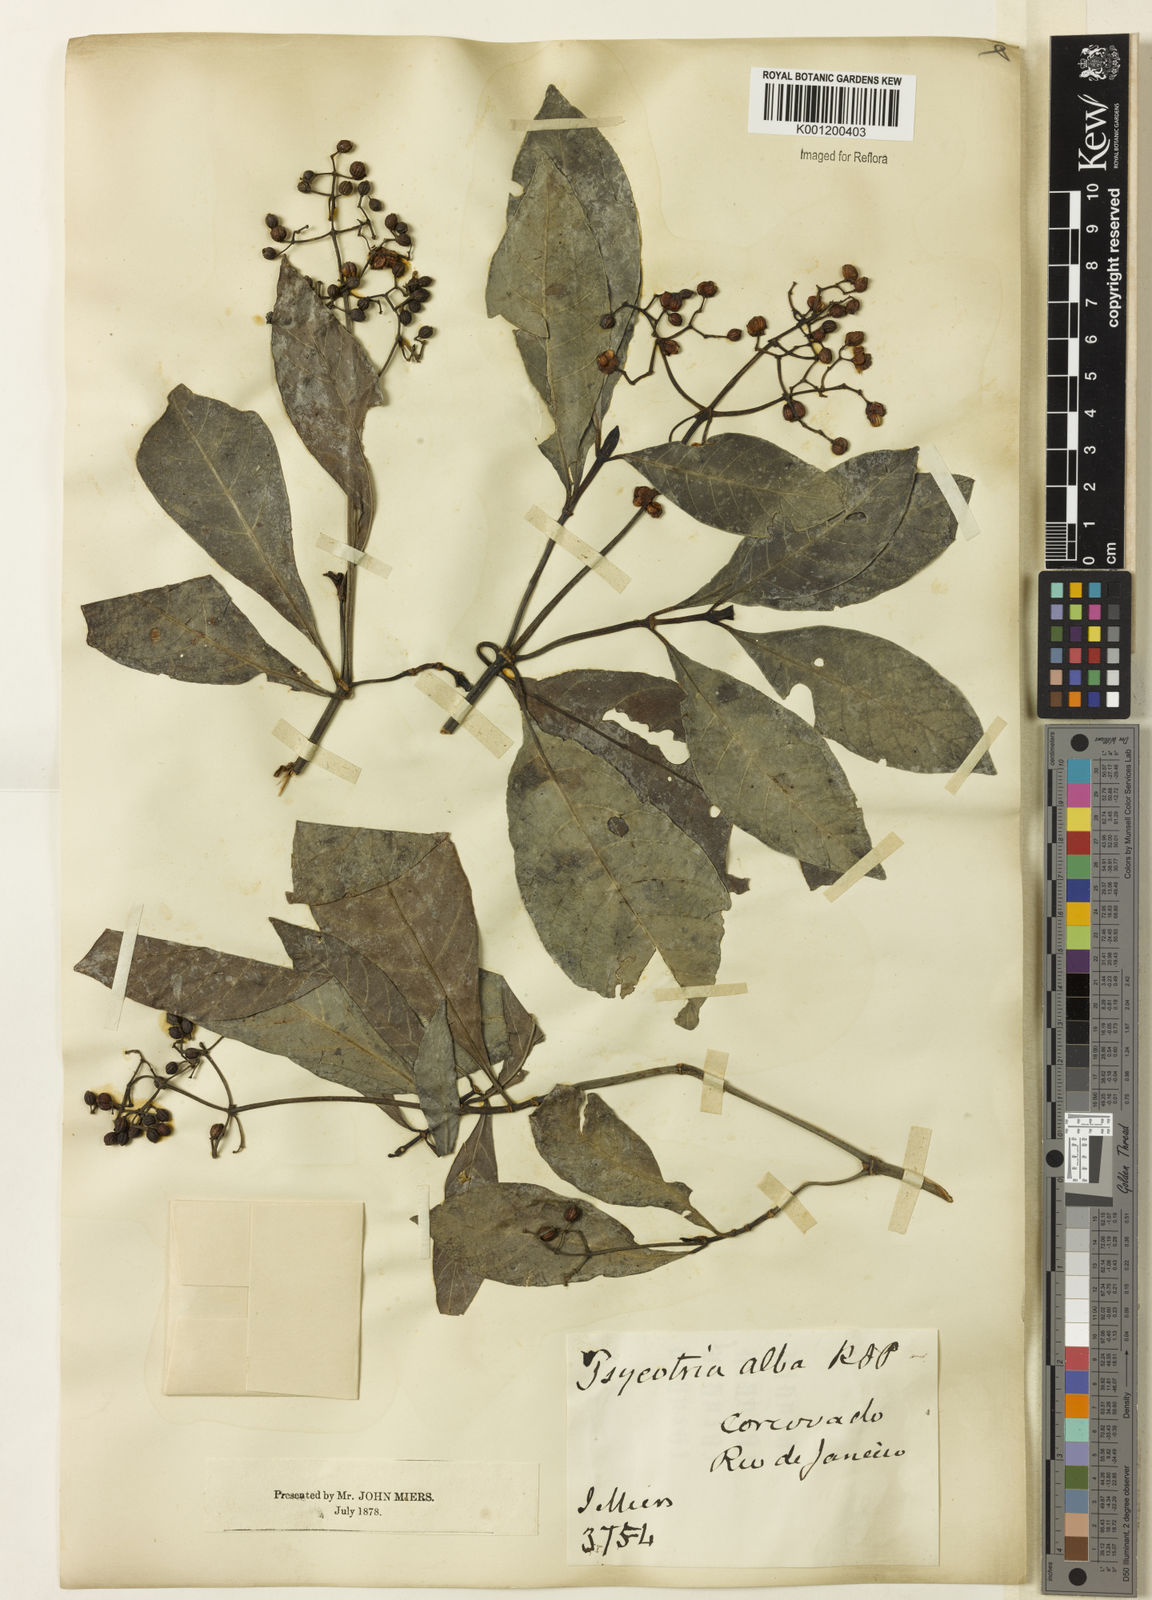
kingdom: Plantae
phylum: Tracheophyta
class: Magnoliopsida
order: Gentianales
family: Rubiaceae
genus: Psychotria
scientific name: Psychotria carthagenensis
